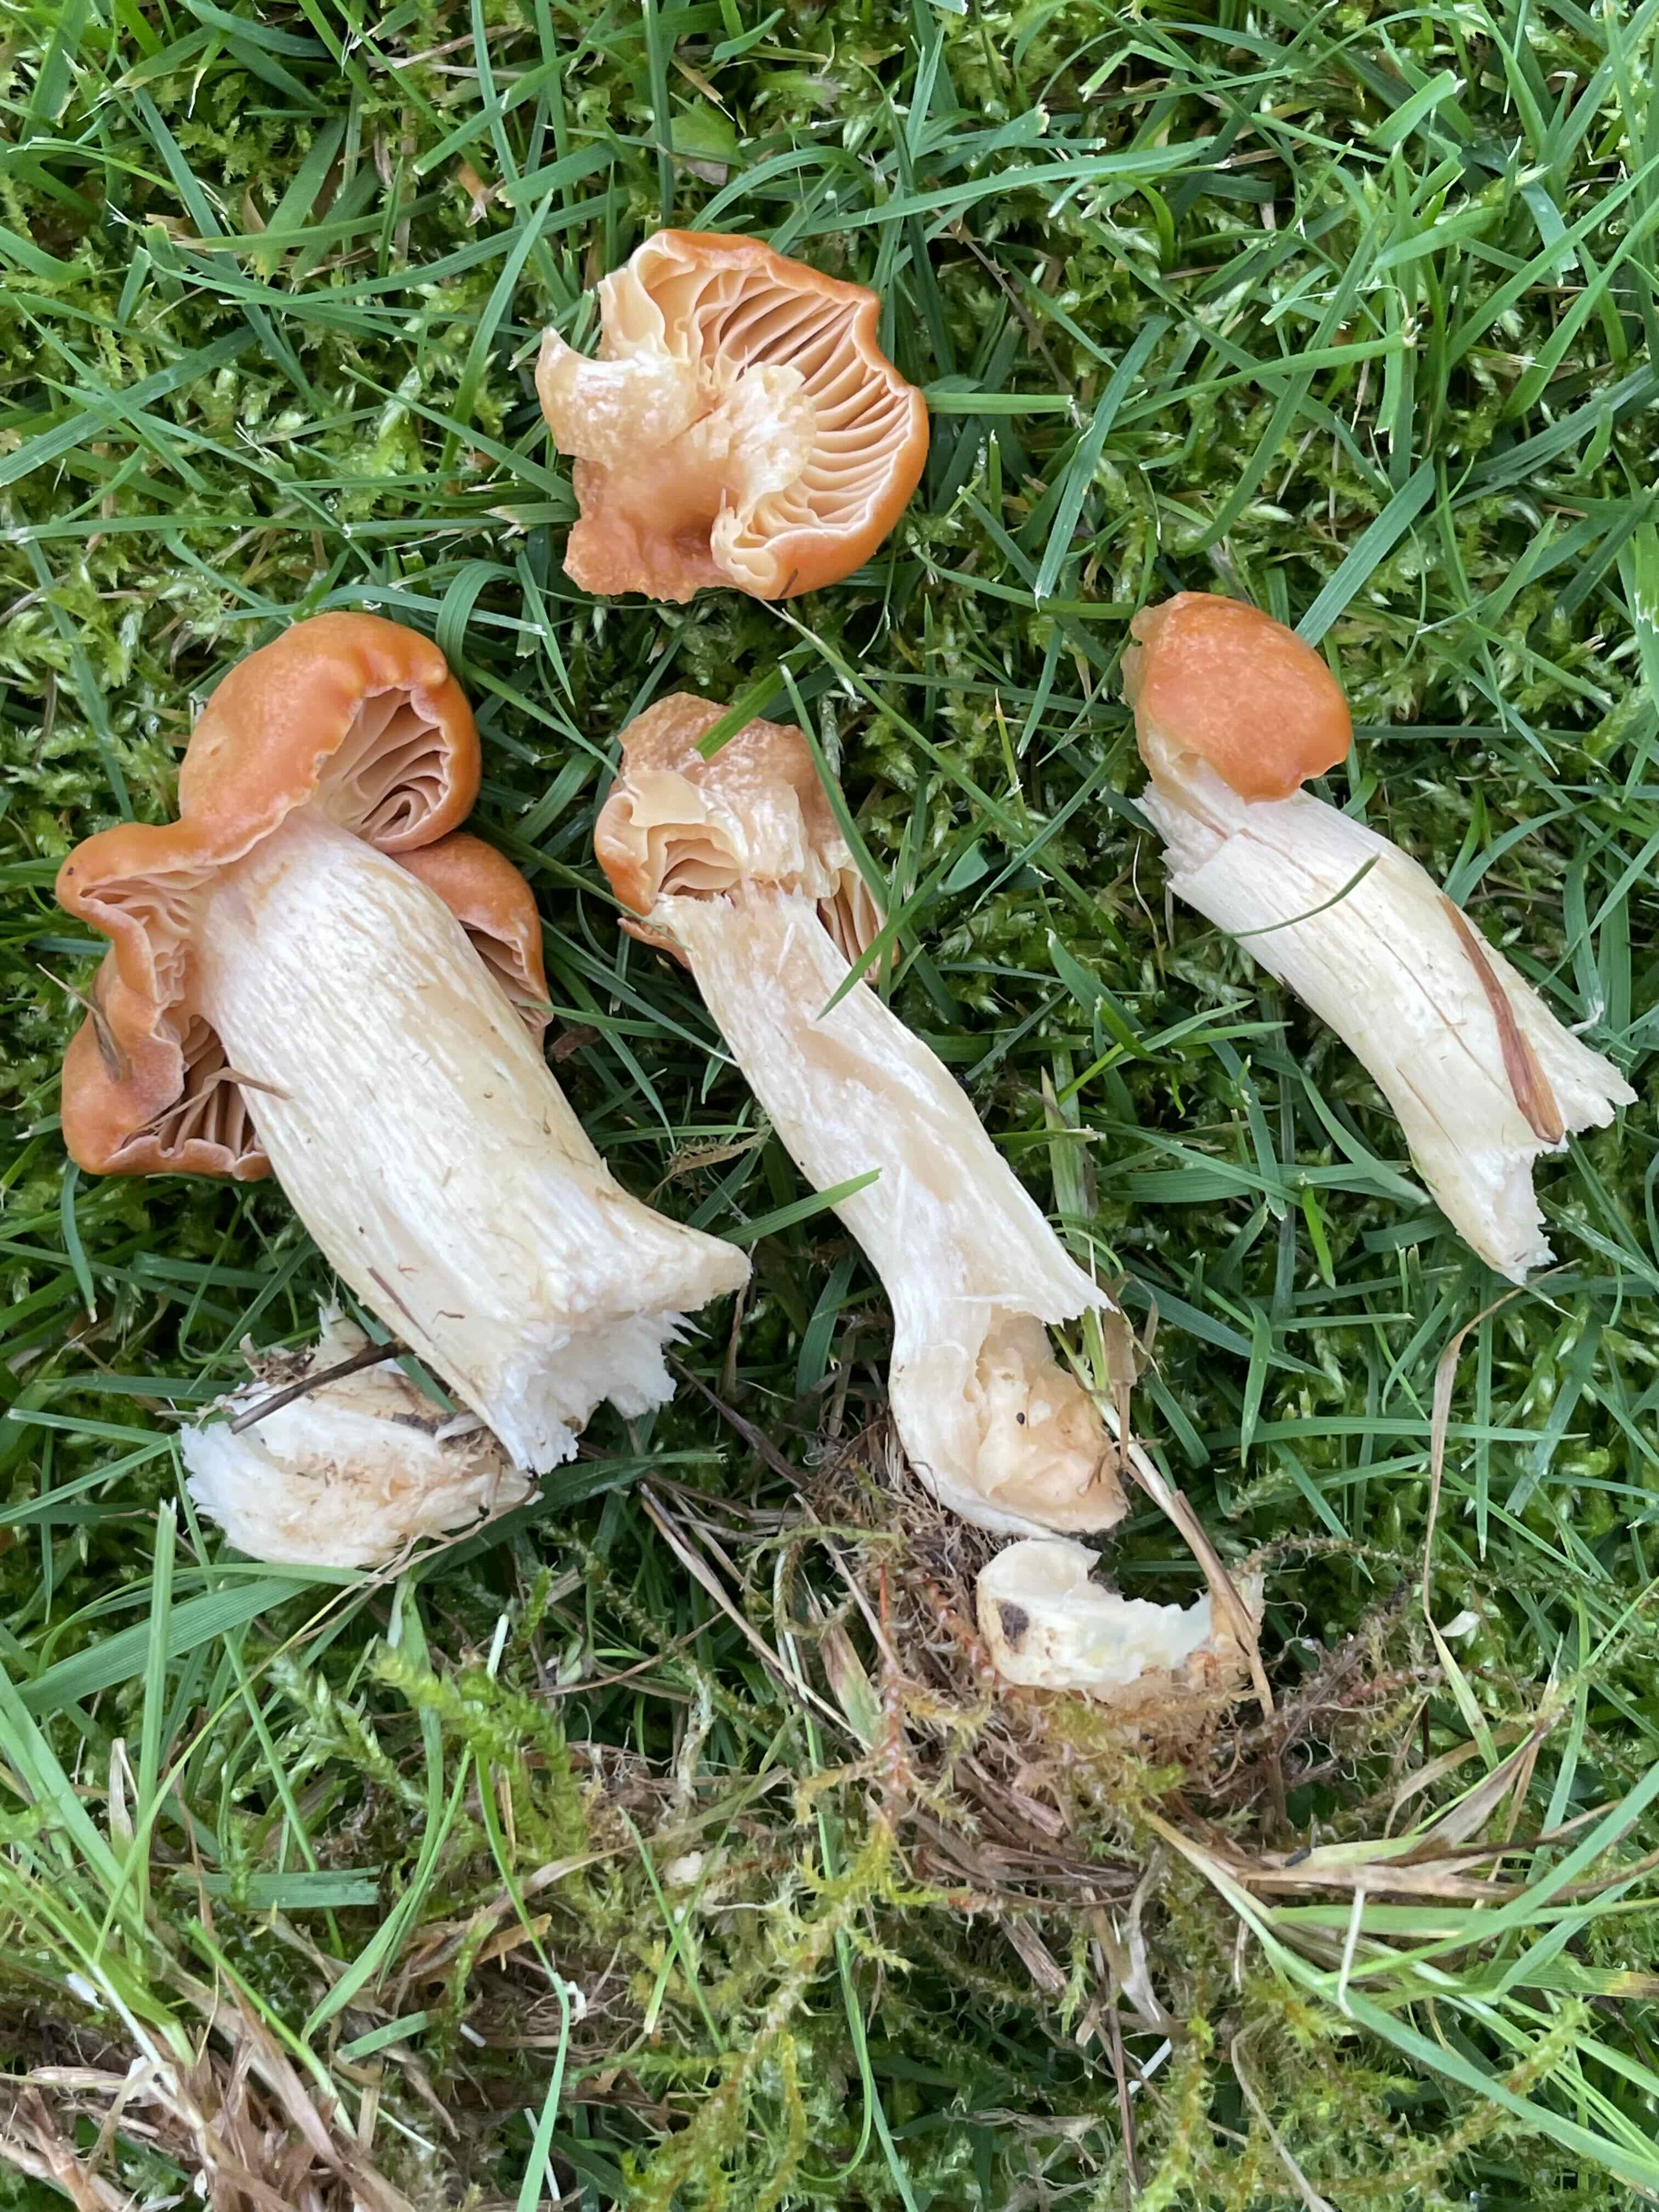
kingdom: Fungi
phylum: Basidiomycota
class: Agaricomycetes
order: Agaricales
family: Hygrophoraceae
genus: Cuphophyllus
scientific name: Cuphophyllus pratensis
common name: eng-vokshat
